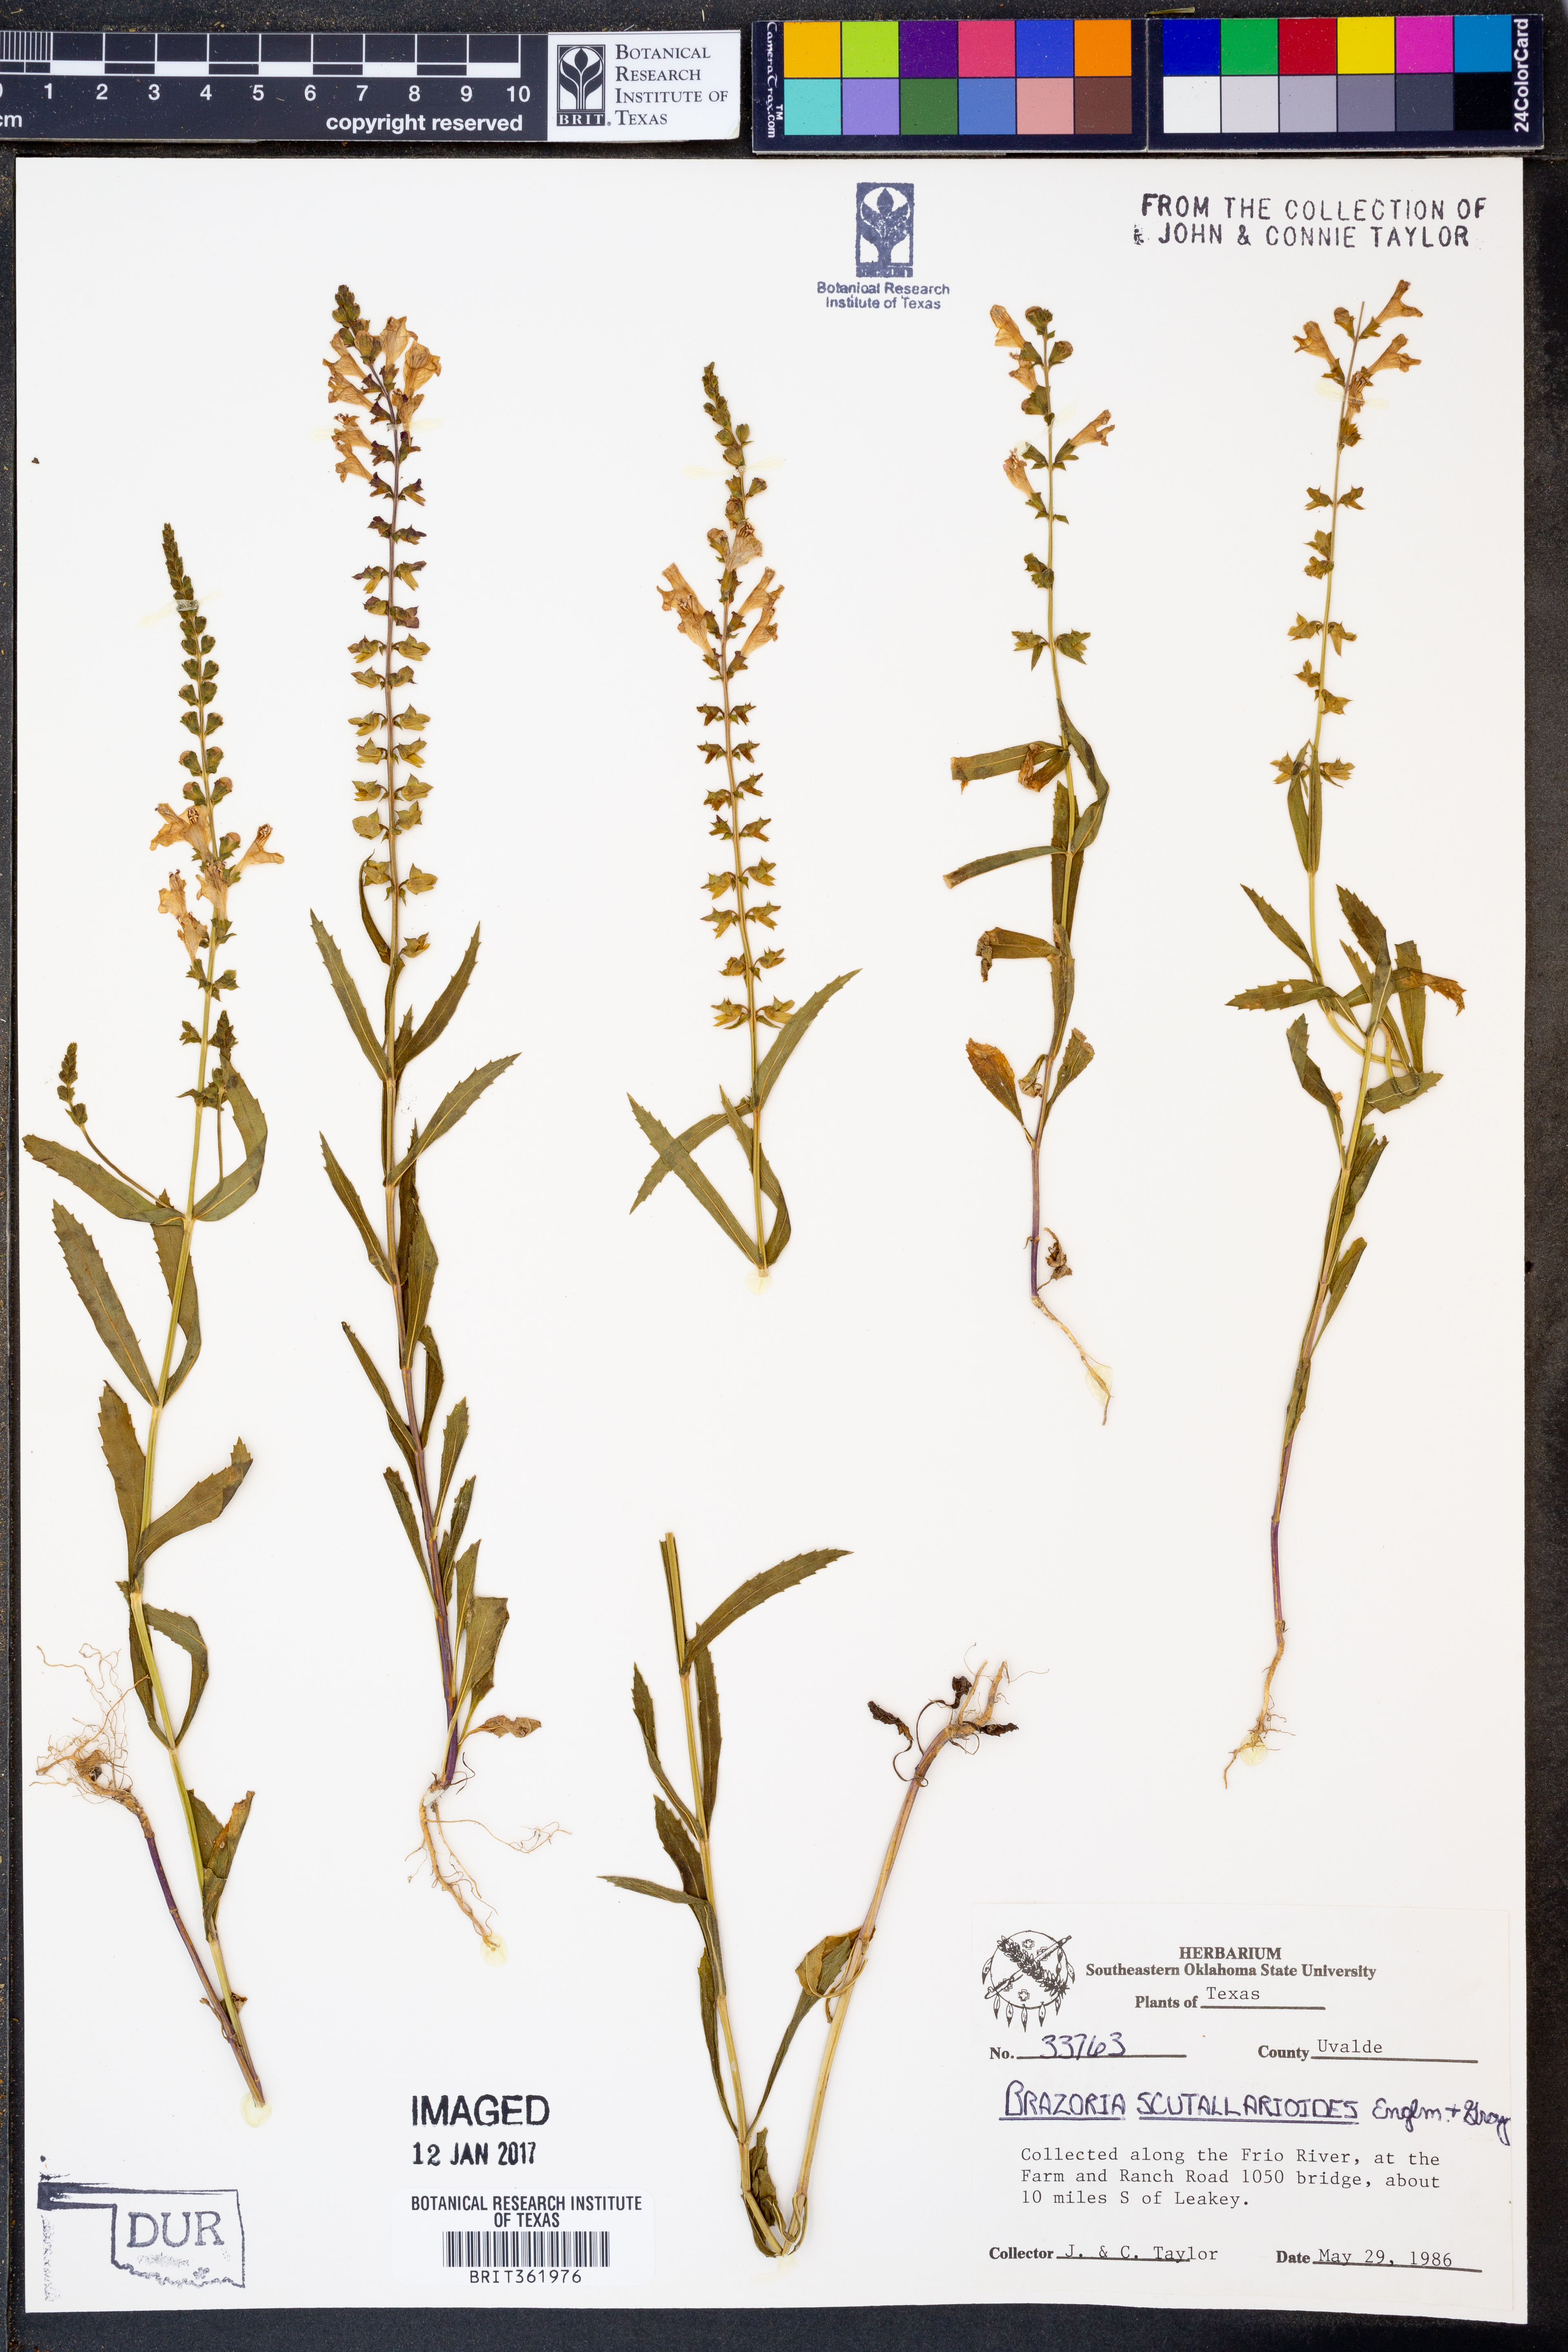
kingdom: Plantae
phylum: Tracheophyta
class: Magnoliopsida
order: Lamiales
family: Lamiaceae
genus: Warnockia
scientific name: Warnockia scutellarioides
